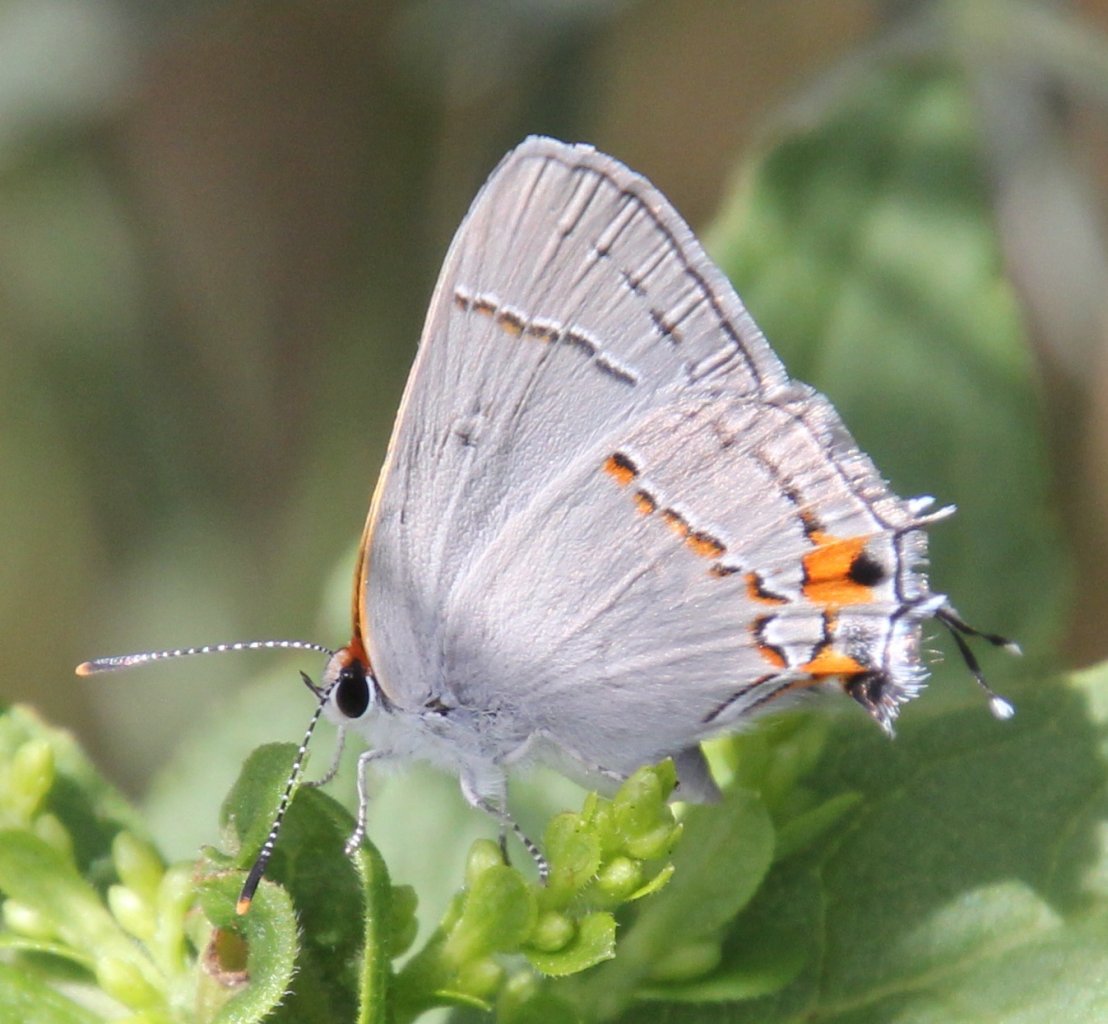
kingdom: Animalia
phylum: Arthropoda
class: Insecta
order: Lepidoptera
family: Lycaenidae
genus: Strymon
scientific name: Strymon melinus
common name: Gray Hairstreak
